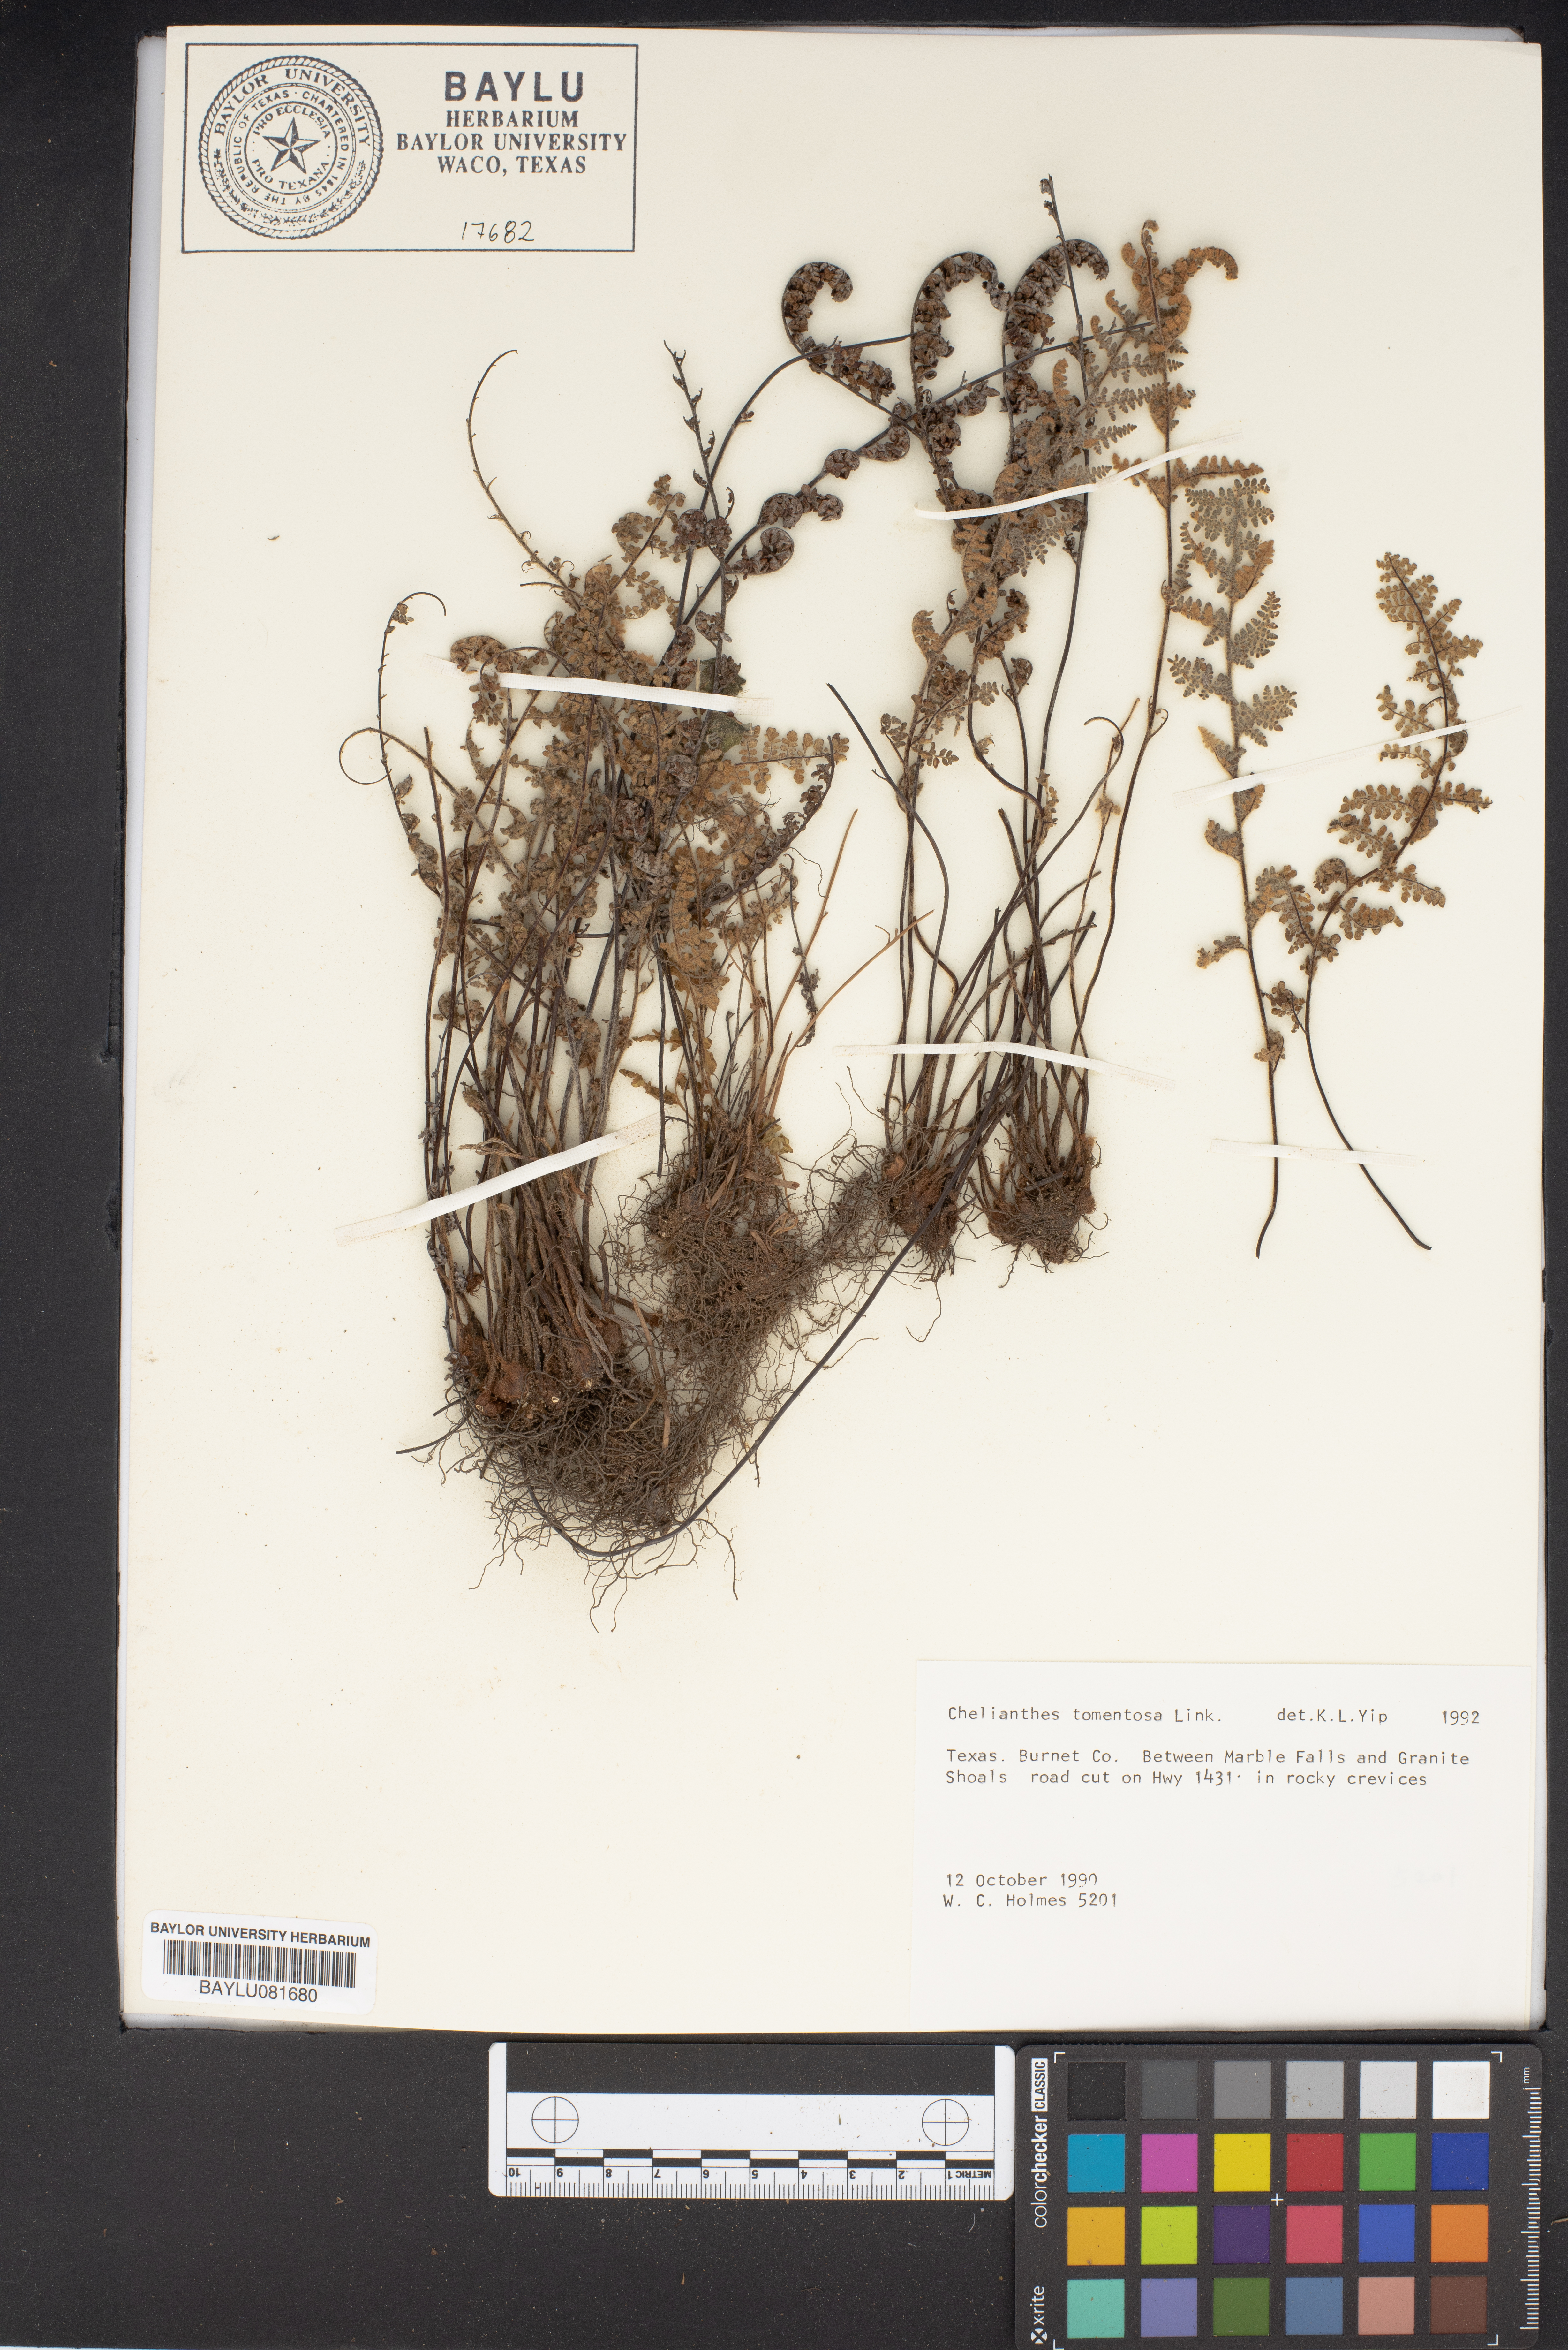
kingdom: Plantae
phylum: Tracheophyta
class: Polypodiopsida
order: Polypodiales
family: Pteridaceae
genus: Myriopteris
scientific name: Myriopteris tomentosa
